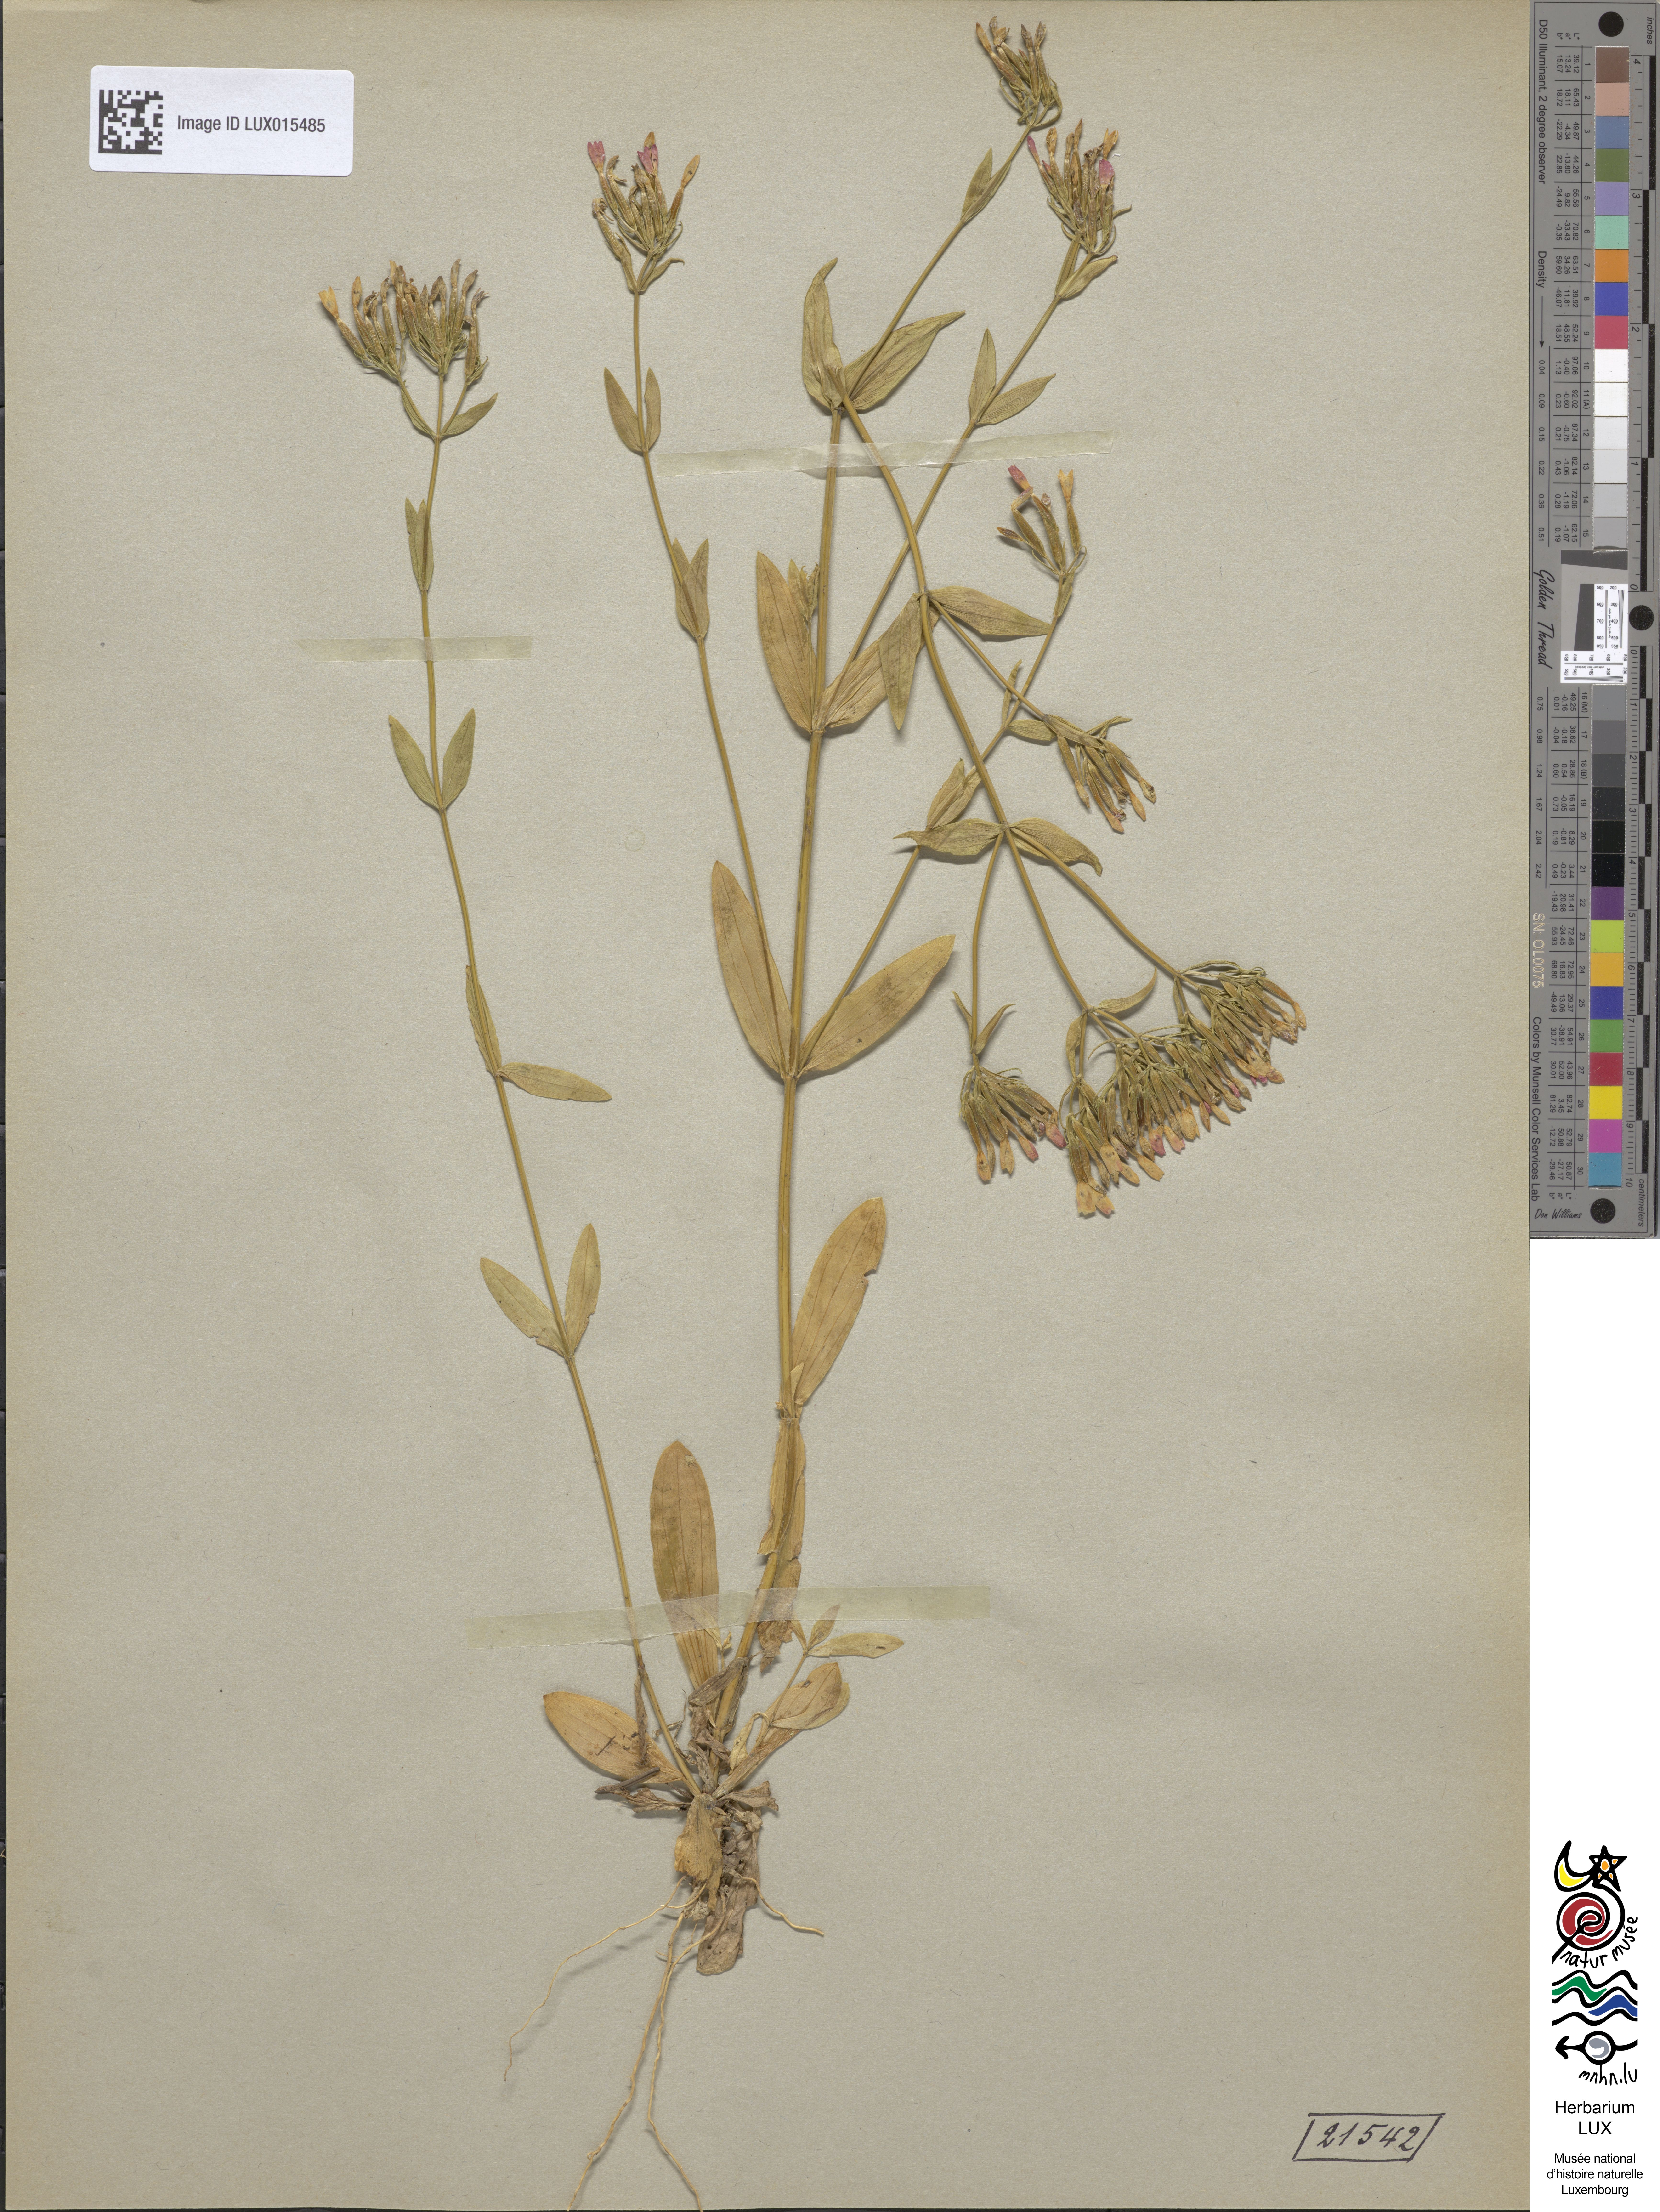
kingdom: Plantae
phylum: Tracheophyta
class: Magnoliopsida
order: Gentianales
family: Gentianaceae
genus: Centaurium
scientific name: Centaurium erythraea
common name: Common centaury
